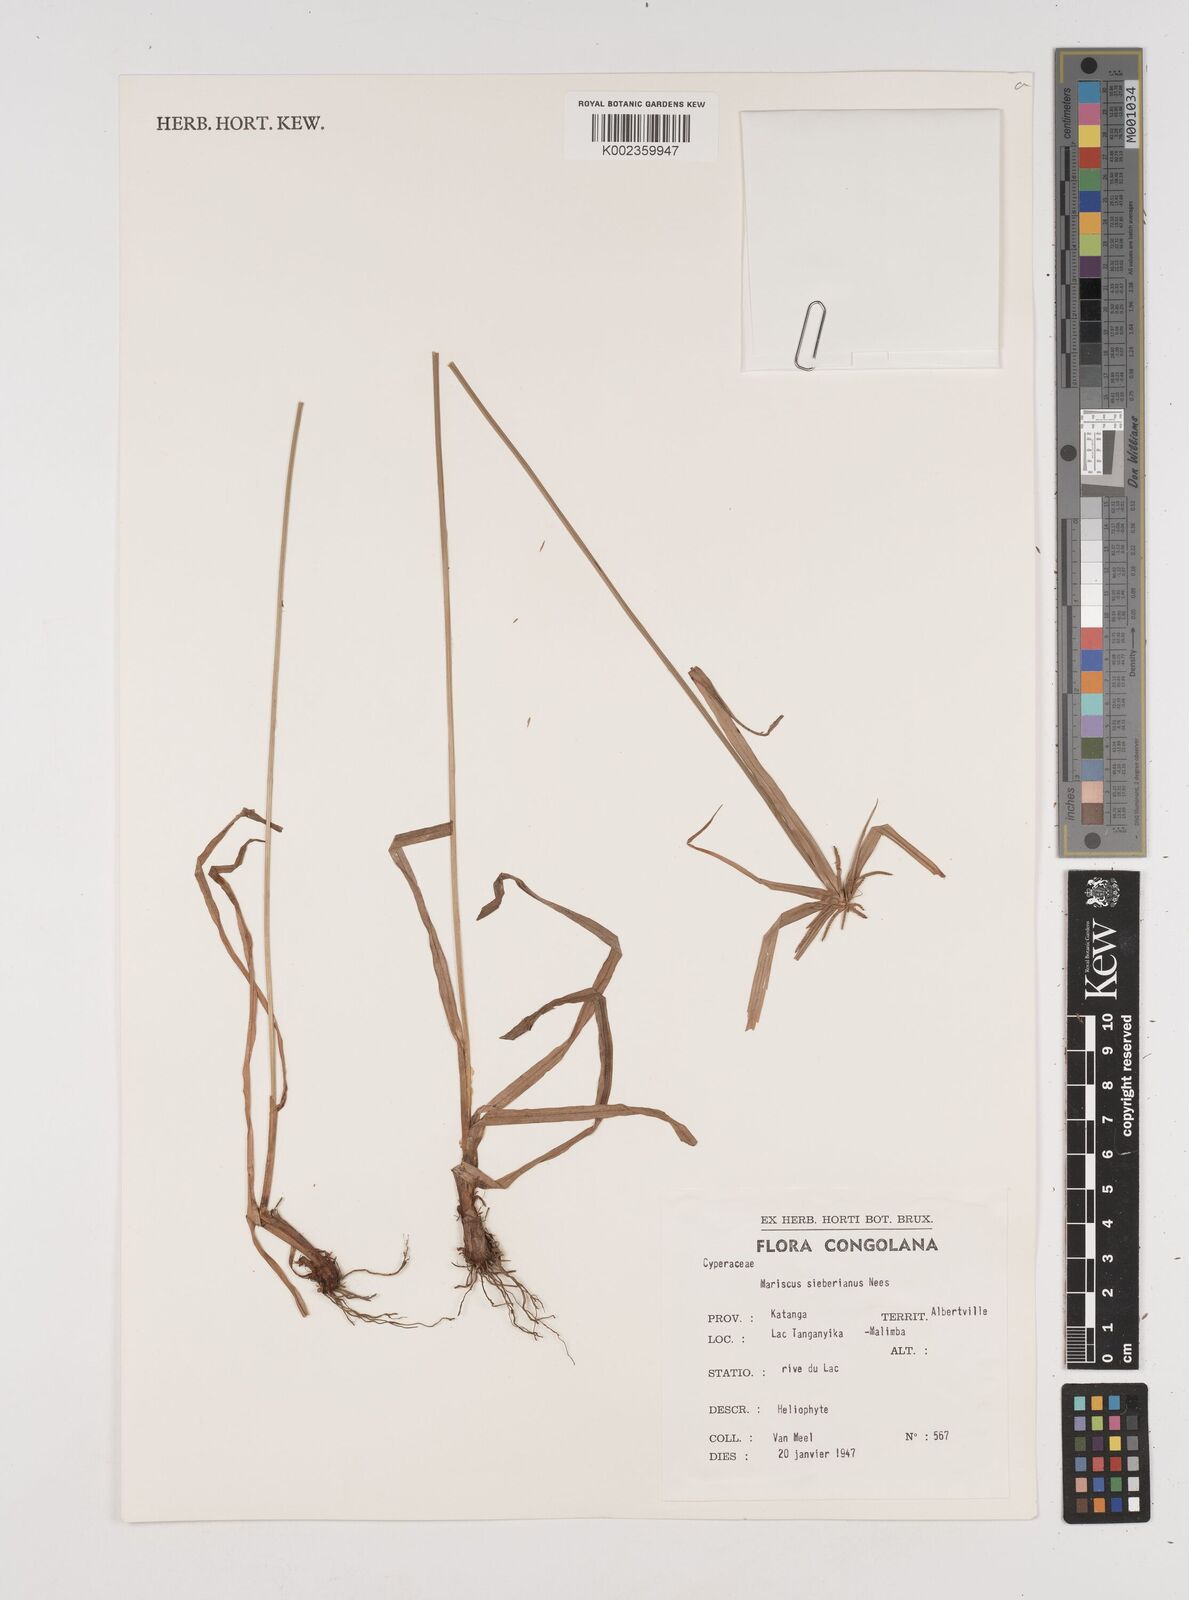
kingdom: Plantae
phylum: Tracheophyta
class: Liliopsida
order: Poales
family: Cyperaceae
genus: Cyperus
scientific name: Cyperus cyperoides
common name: Pacific island flat sedge
